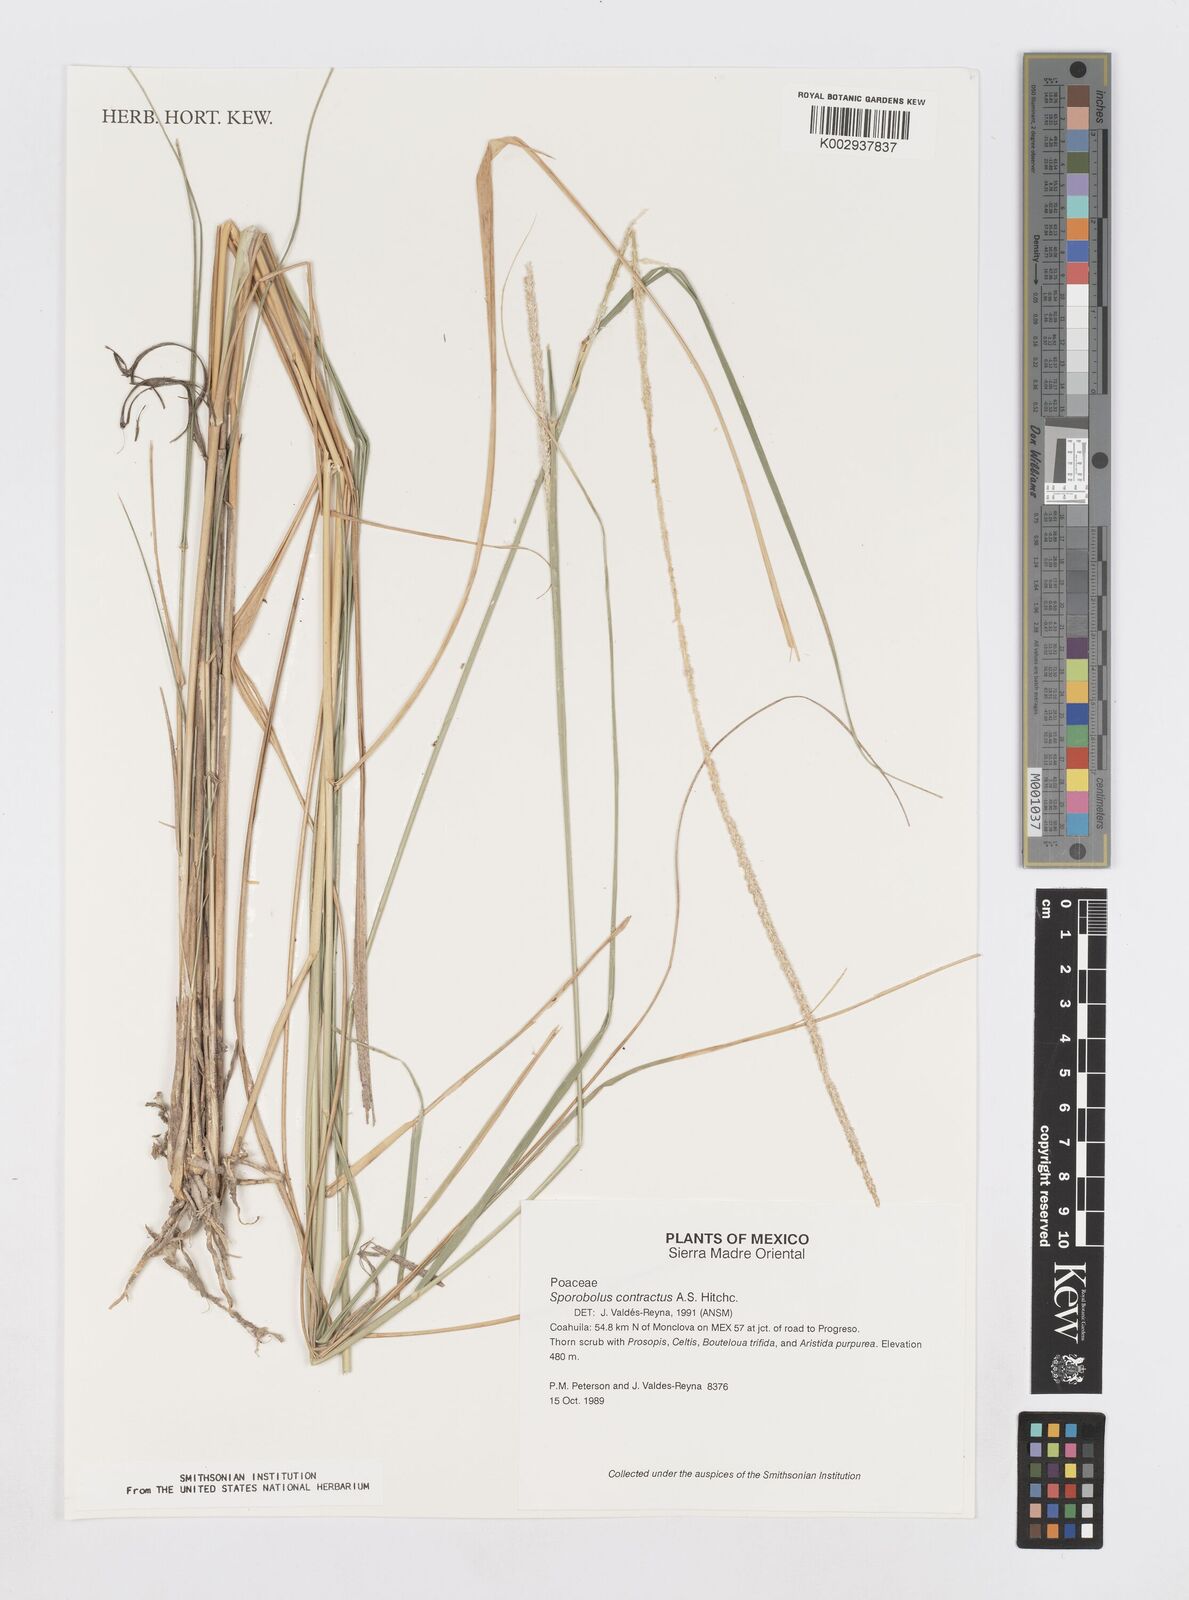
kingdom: Plantae
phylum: Tracheophyta
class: Liliopsida
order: Poales
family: Poaceae
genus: Sporobolus
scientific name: Sporobolus contractus
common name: Spike dropseed
